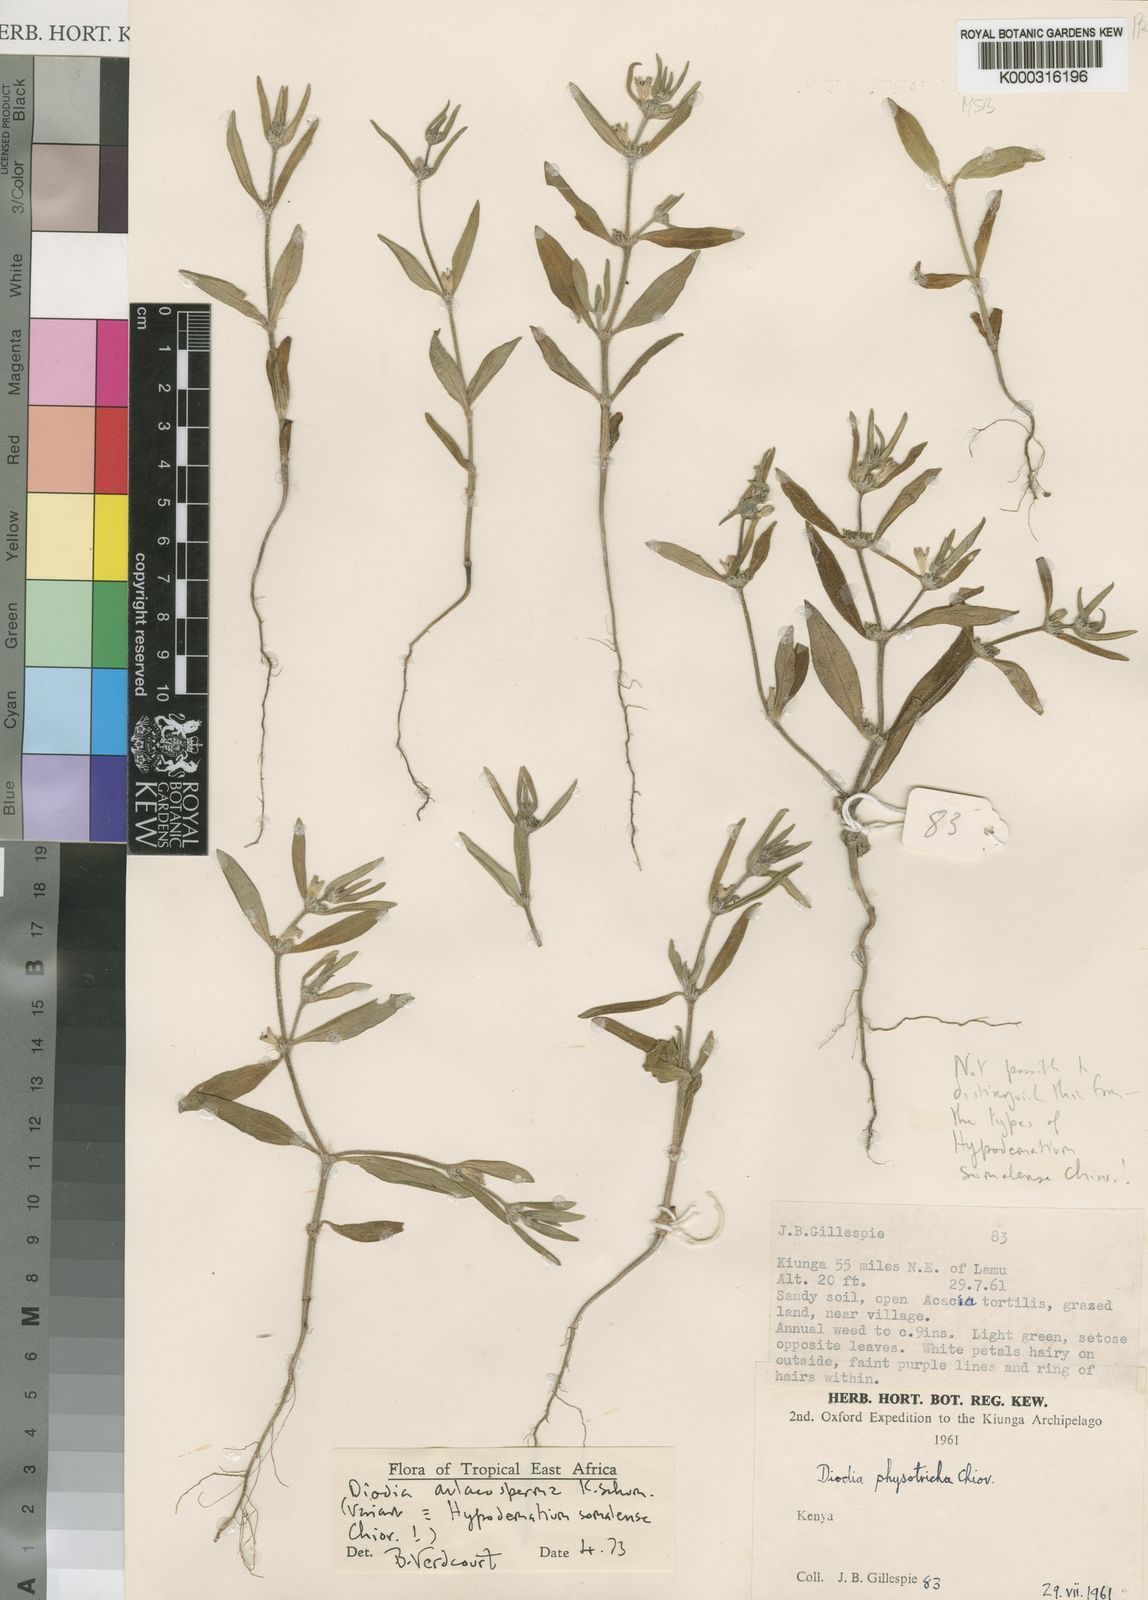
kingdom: Plantae
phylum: Tracheophyta
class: Magnoliopsida
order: Gentianales
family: Rubiaceae
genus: Diodia
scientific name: Diodia aulacosperma
